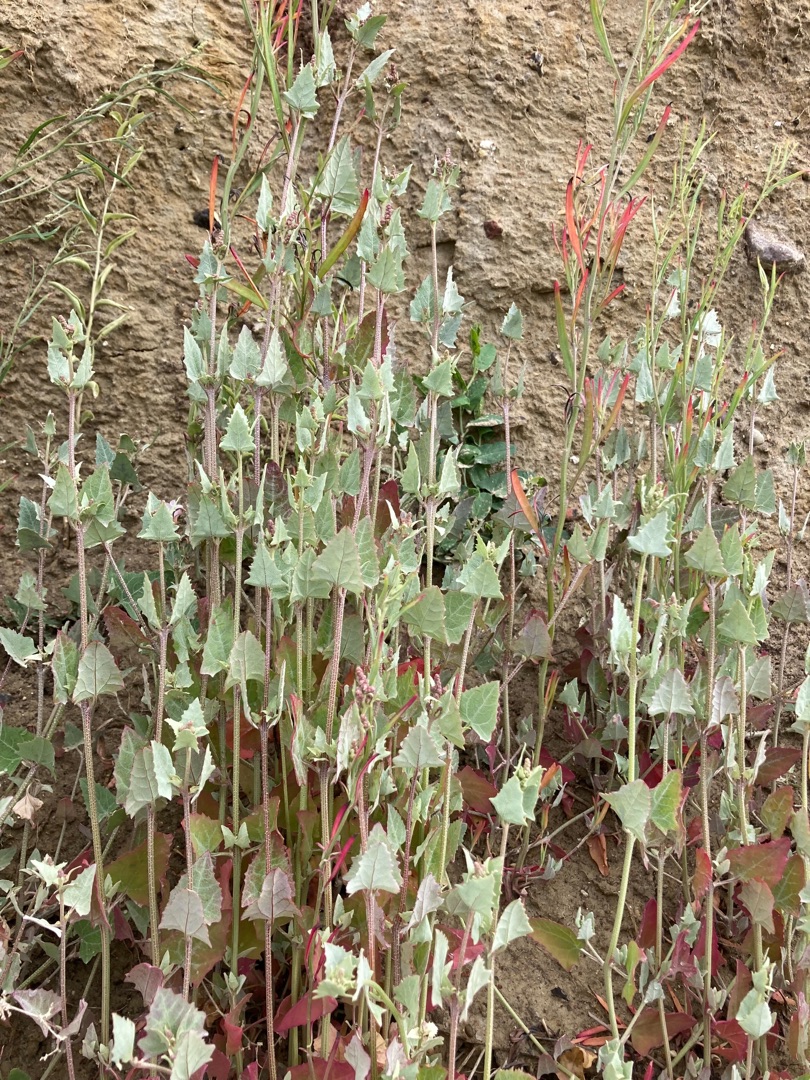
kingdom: Plantae
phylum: Tracheophyta
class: Magnoliopsida
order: Caryophyllales
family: Amaranthaceae
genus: Atriplex
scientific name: Atriplex prostrata
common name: Spyd-mælde
